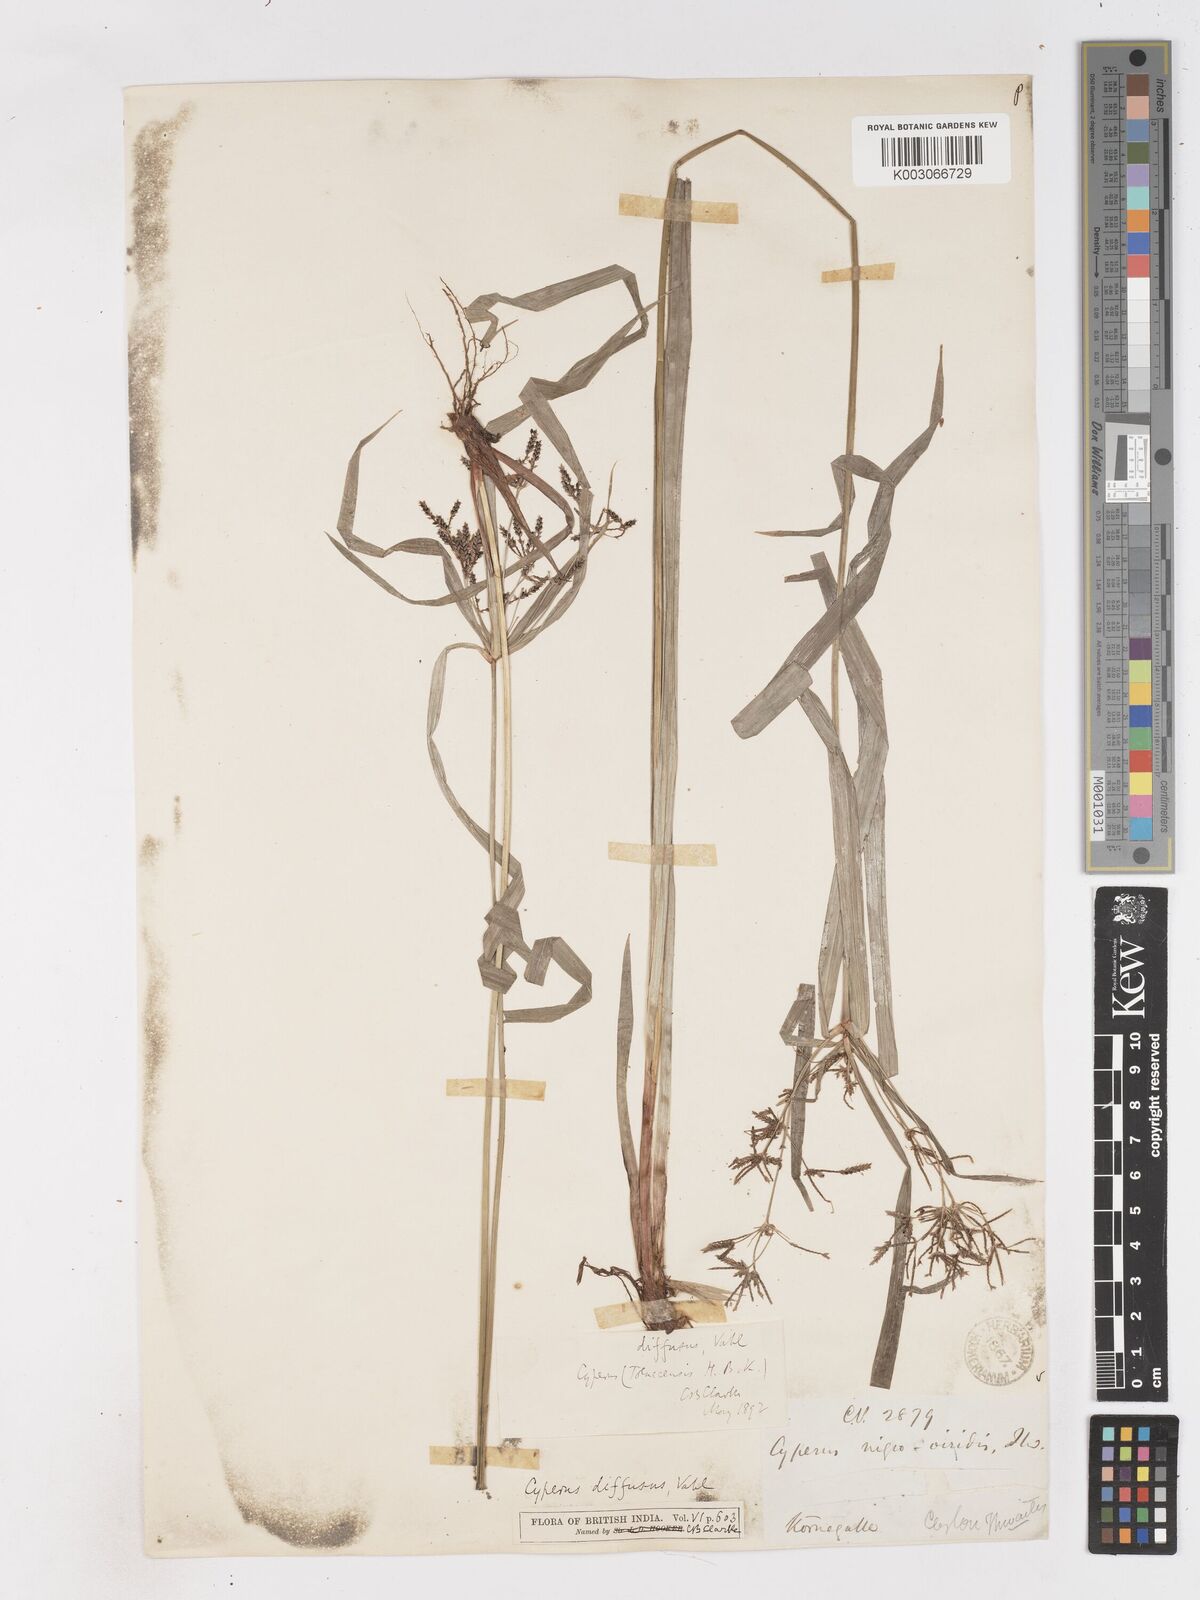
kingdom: Plantae
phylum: Tracheophyta
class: Liliopsida
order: Poales
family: Cyperaceae
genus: Cyperus
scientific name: Cyperus diffusus
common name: Dwarf umbrella grass
